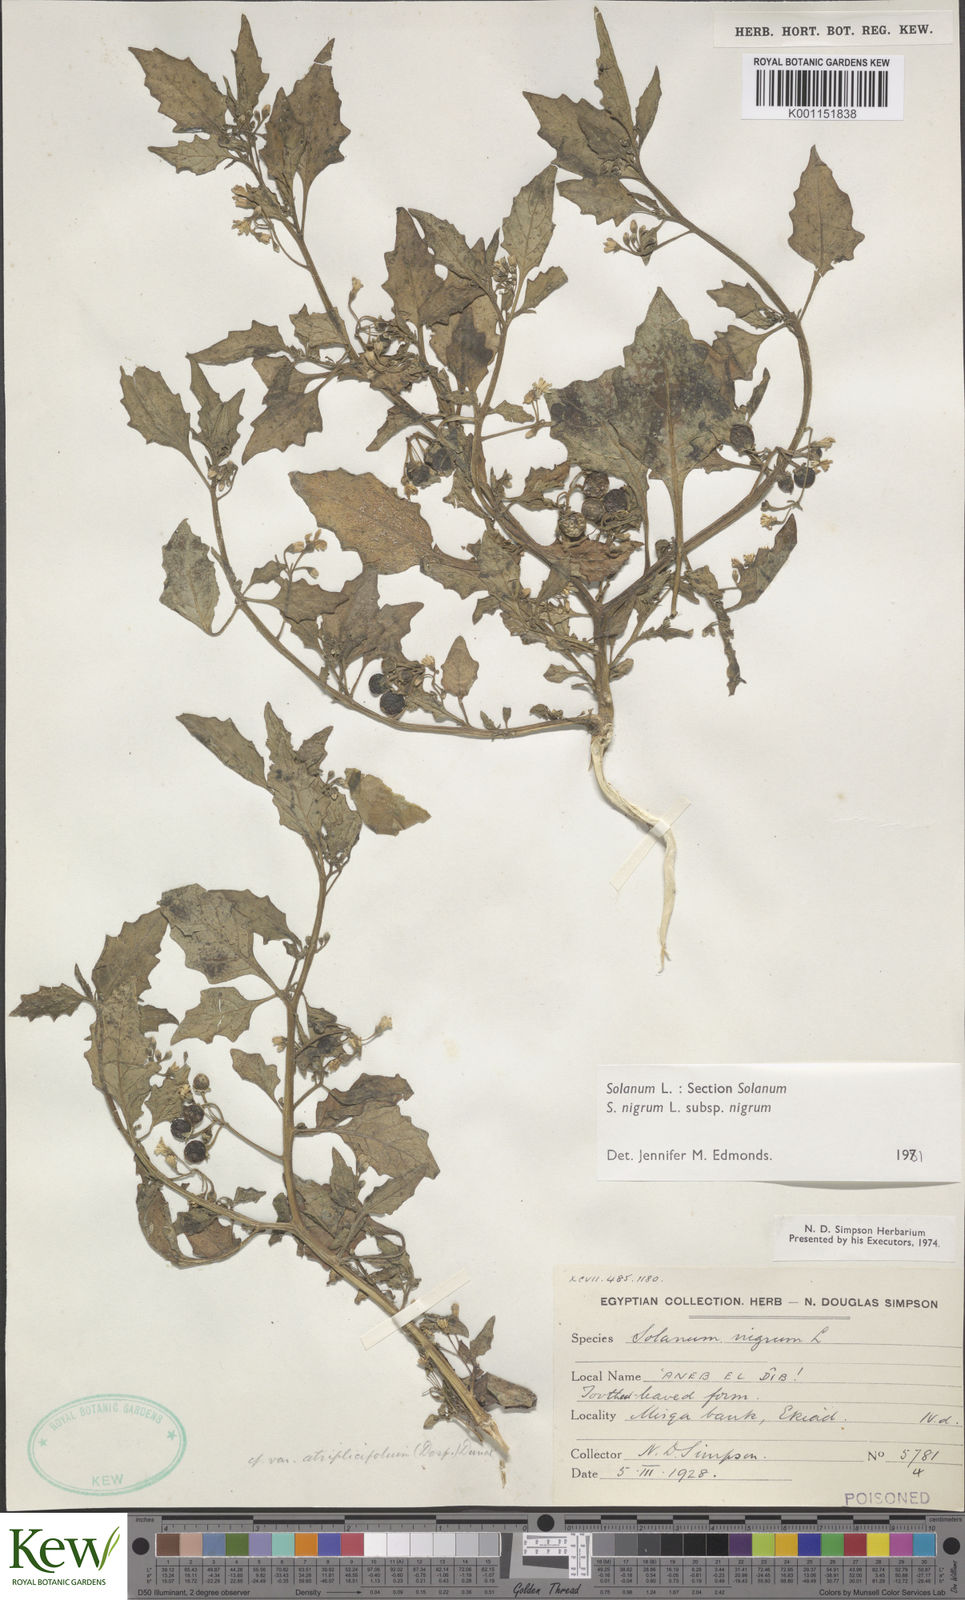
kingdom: Plantae
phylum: Tracheophyta
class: Magnoliopsida
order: Solanales
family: Solanaceae
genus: Solanum
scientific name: Solanum nigrum
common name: Black nightshade
